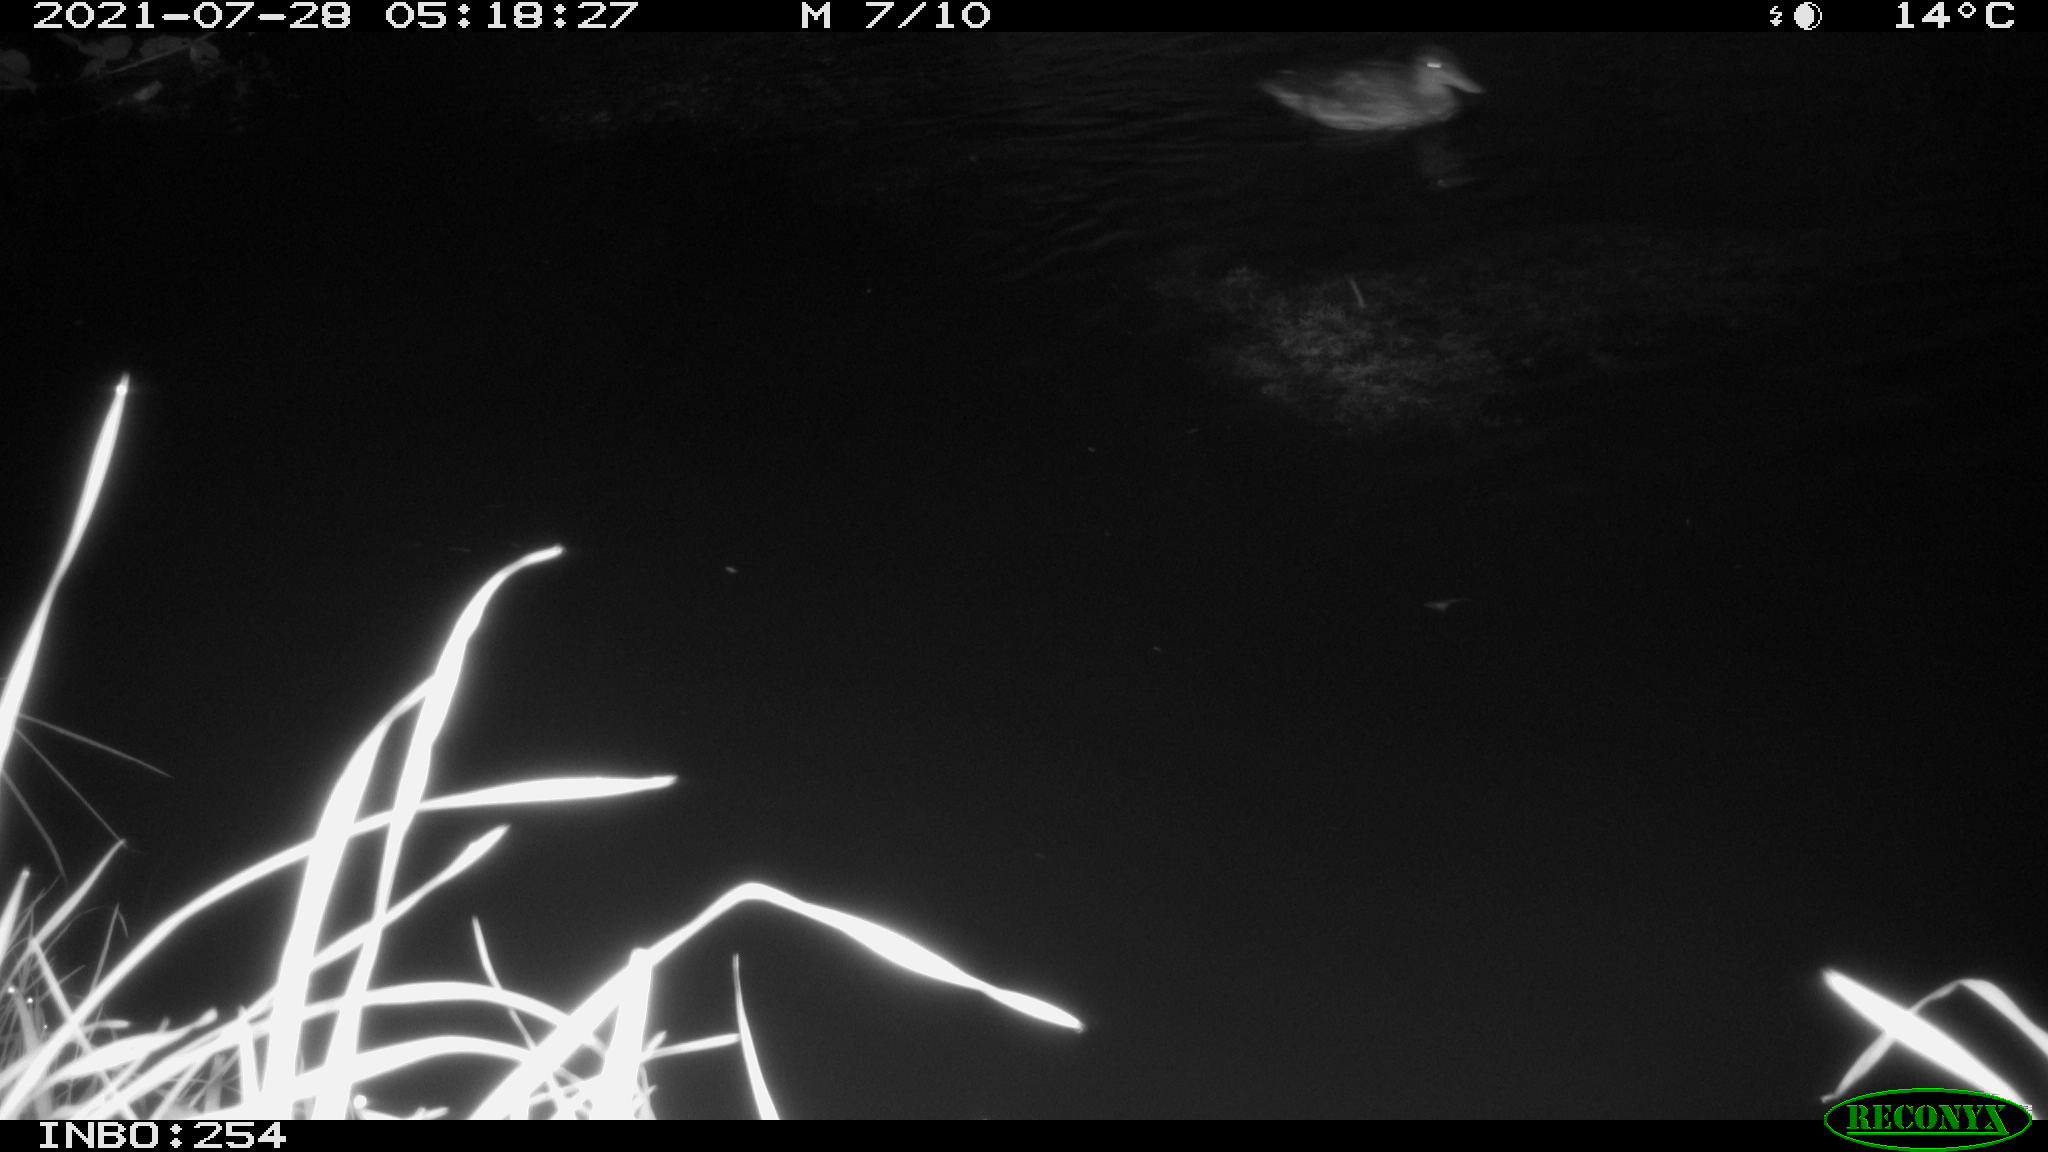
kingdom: Animalia
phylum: Chordata
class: Aves
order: Anseriformes
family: Anatidae
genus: Anas
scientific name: Anas platyrhynchos
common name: Mallard
